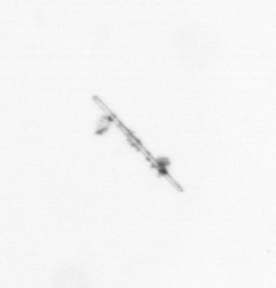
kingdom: Chromista
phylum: Ochrophyta
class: Bacillariophyceae
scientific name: Bacillariophyceae
